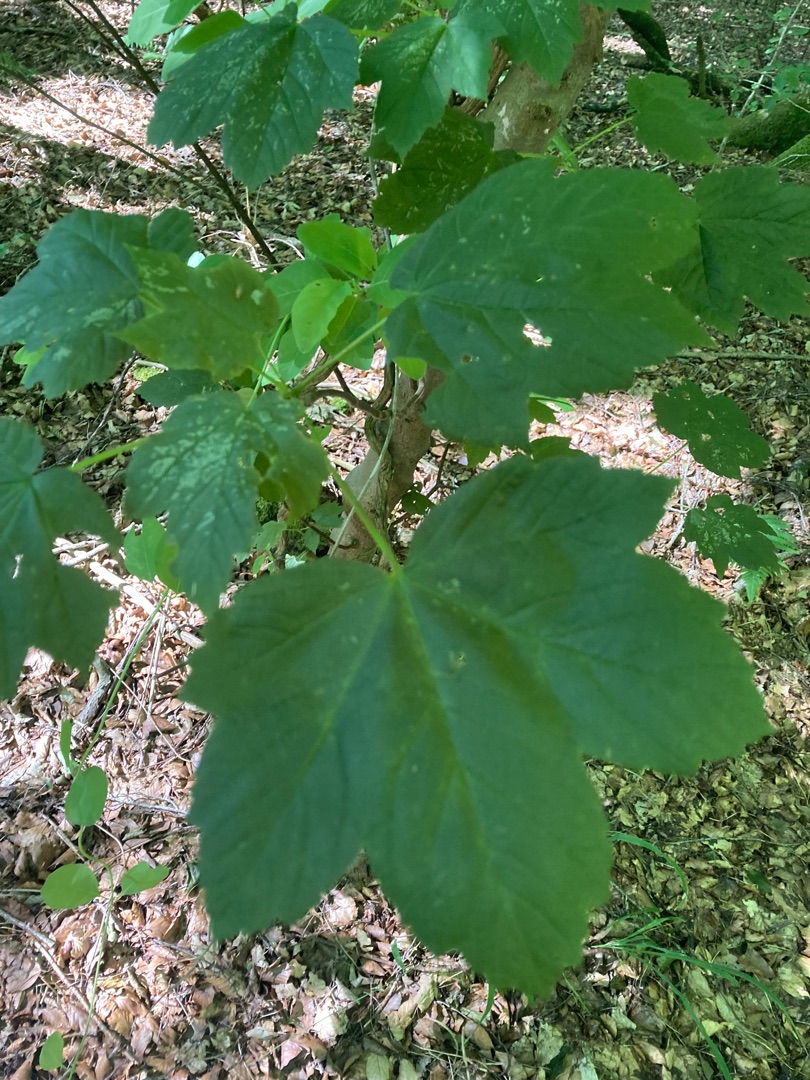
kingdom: Plantae
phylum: Tracheophyta
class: Magnoliopsida
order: Sapindales
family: Sapindaceae
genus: Acer
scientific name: Acer pseudoplatanus
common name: Ahorn
